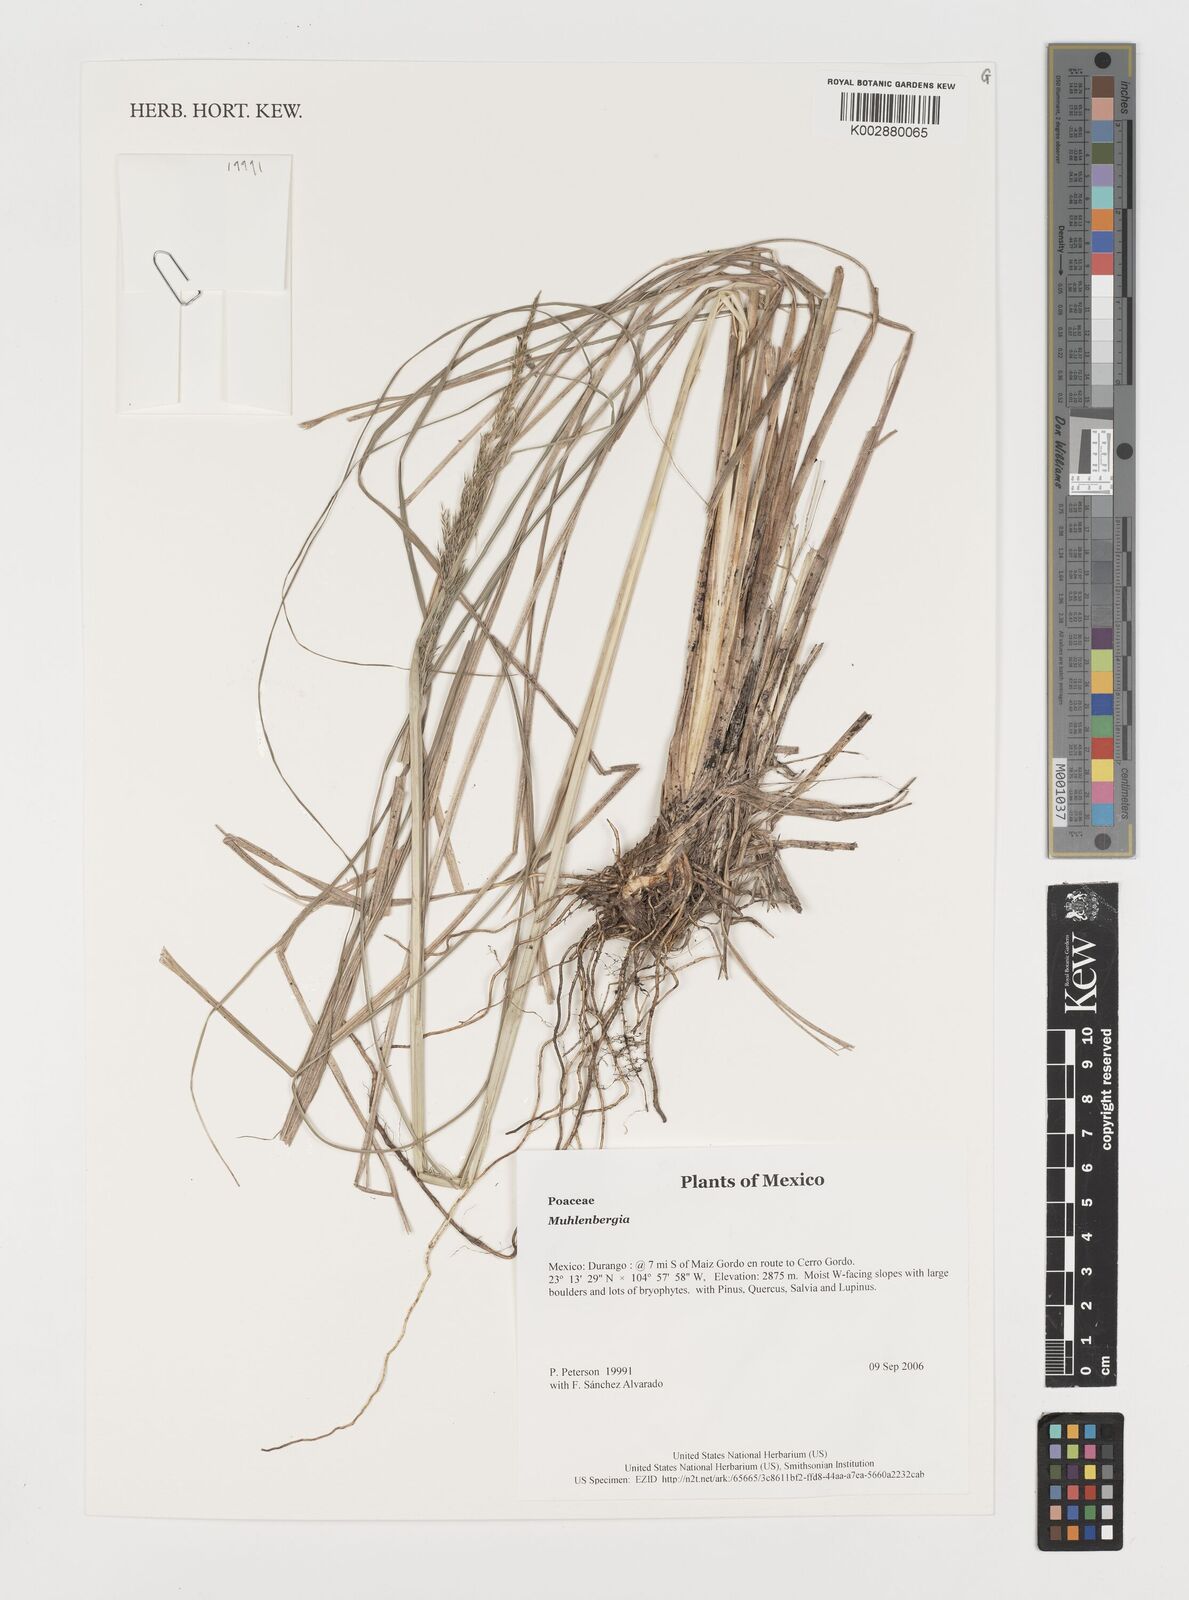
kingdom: Plantae
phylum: Tracheophyta
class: Liliopsida
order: Poales
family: Poaceae
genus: Muhlenbergia
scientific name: Muhlenbergia
